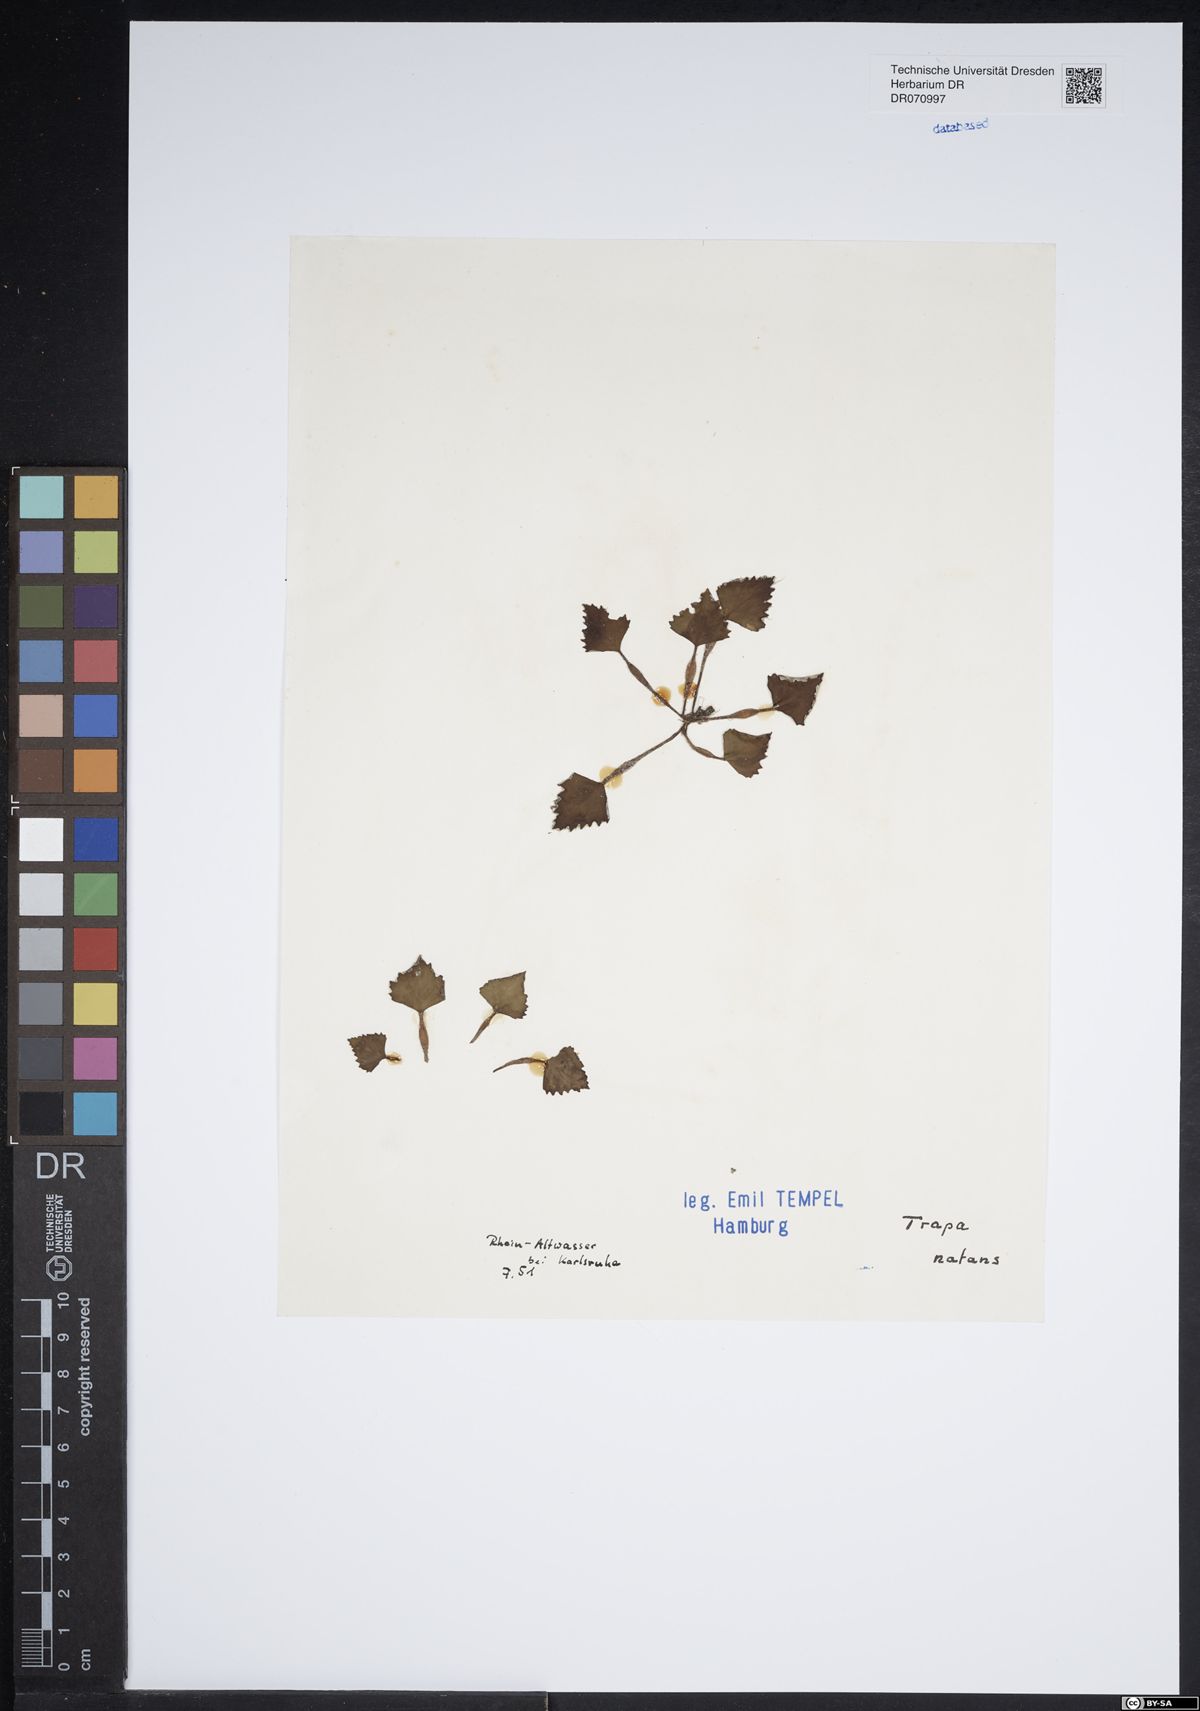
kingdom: Plantae
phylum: Tracheophyta
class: Magnoliopsida
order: Myrtales
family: Lythraceae
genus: Trapa
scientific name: Trapa natans
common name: Water chestnut
